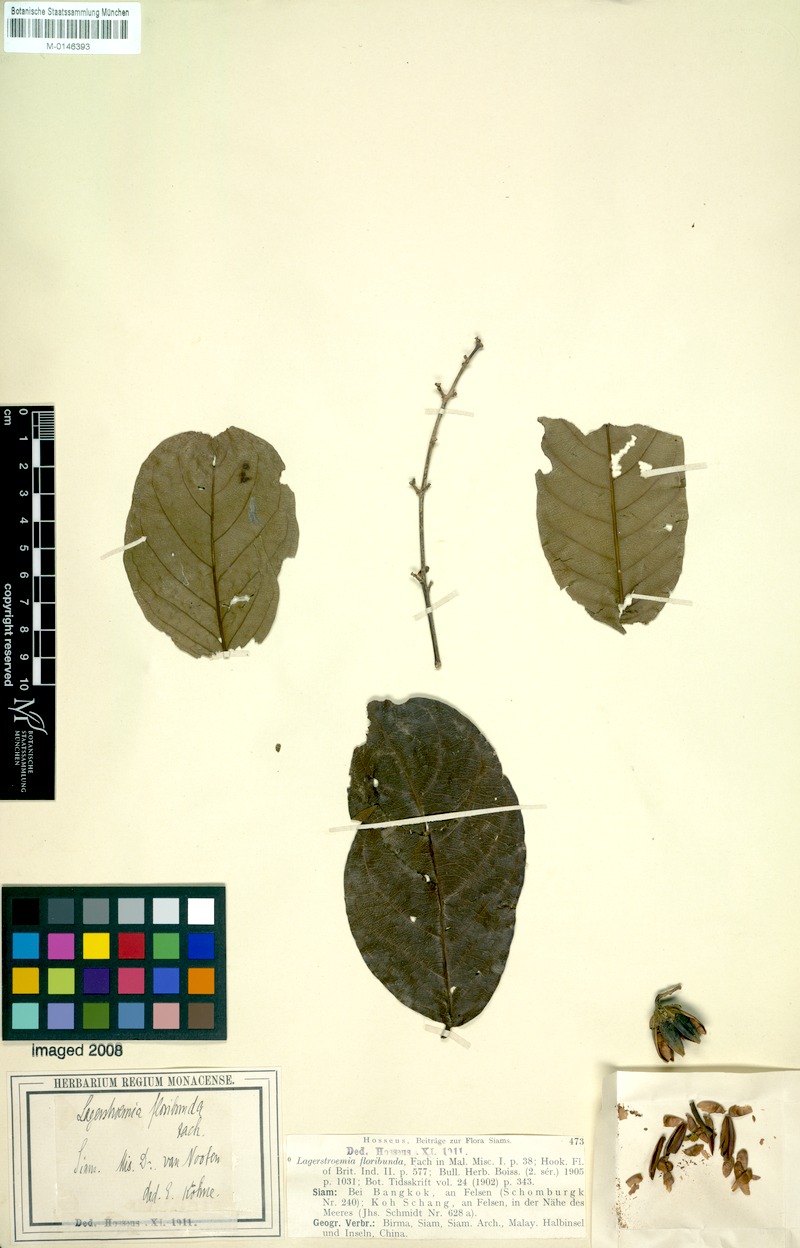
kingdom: Plantae
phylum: Tracheophyta
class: Magnoliopsida
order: Myrtales
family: Lythraceae
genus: Lagerstroemia
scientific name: Lagerstroemia floribunda
